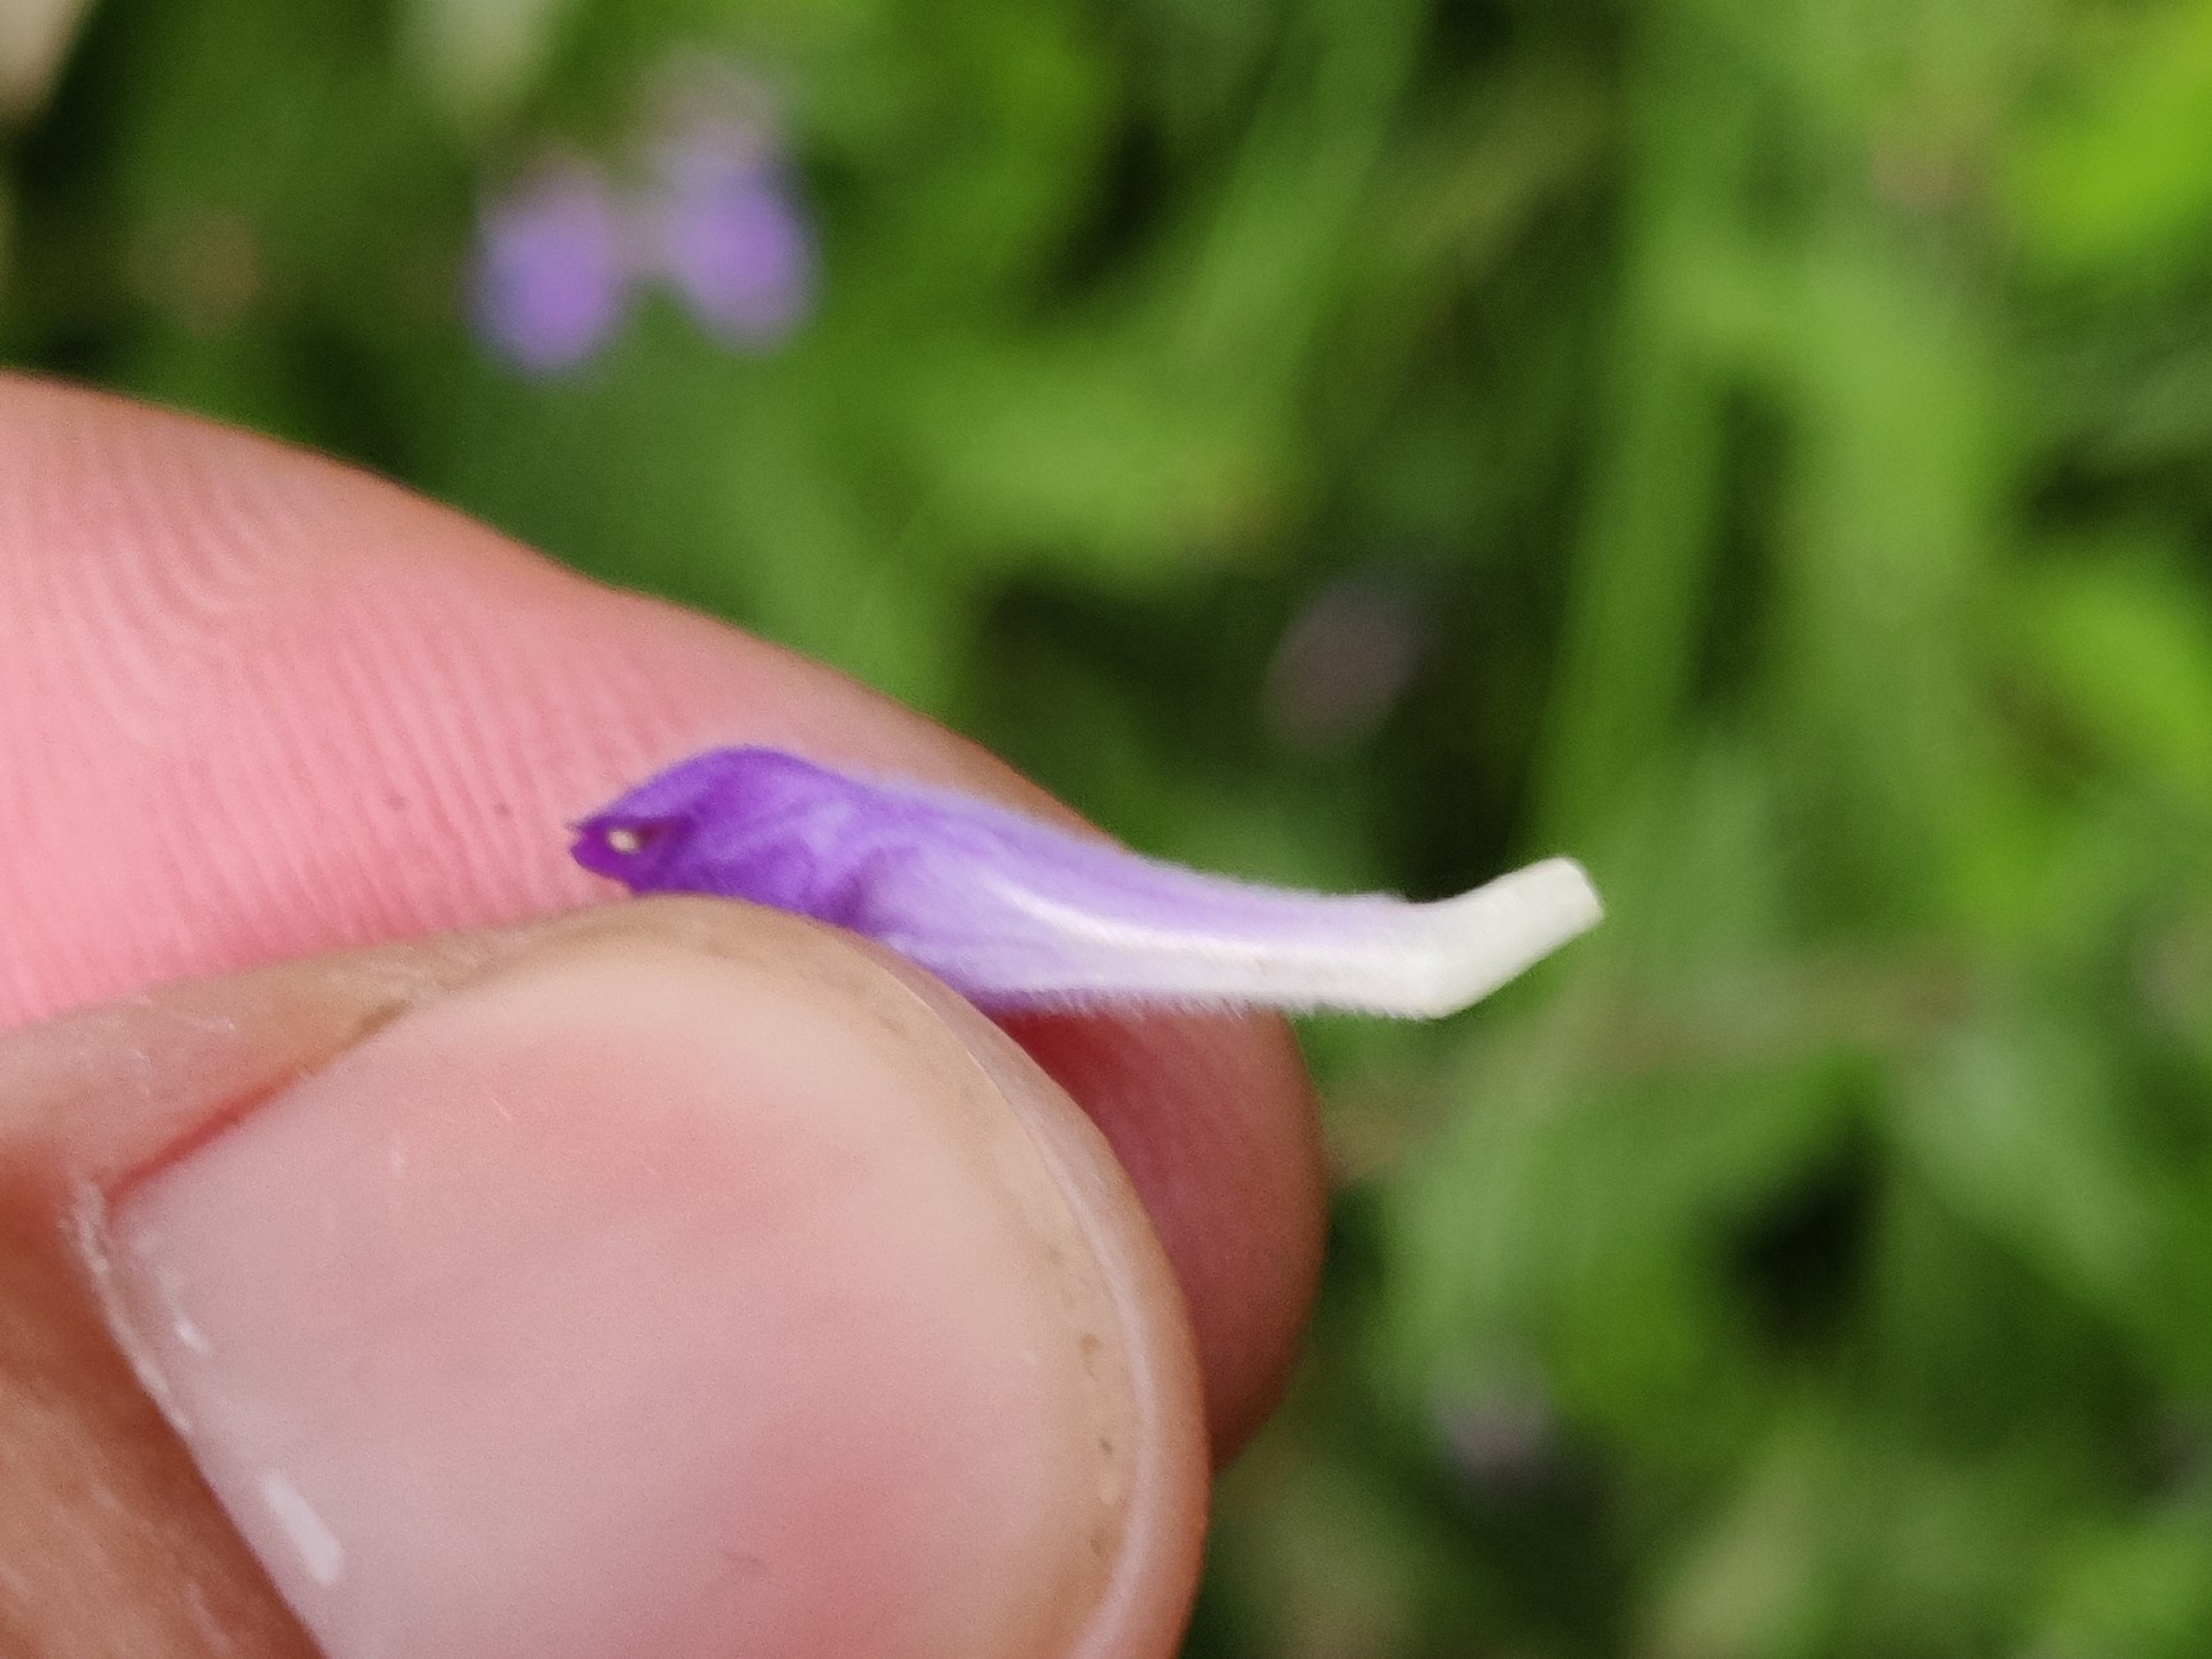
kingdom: Plantae
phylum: Tracheophyta
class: Magnoliopsida
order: Lamiales
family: Lamiaceae
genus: Scutellaria
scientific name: Scutellaria galericulata
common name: Almindelig skjolddrager
